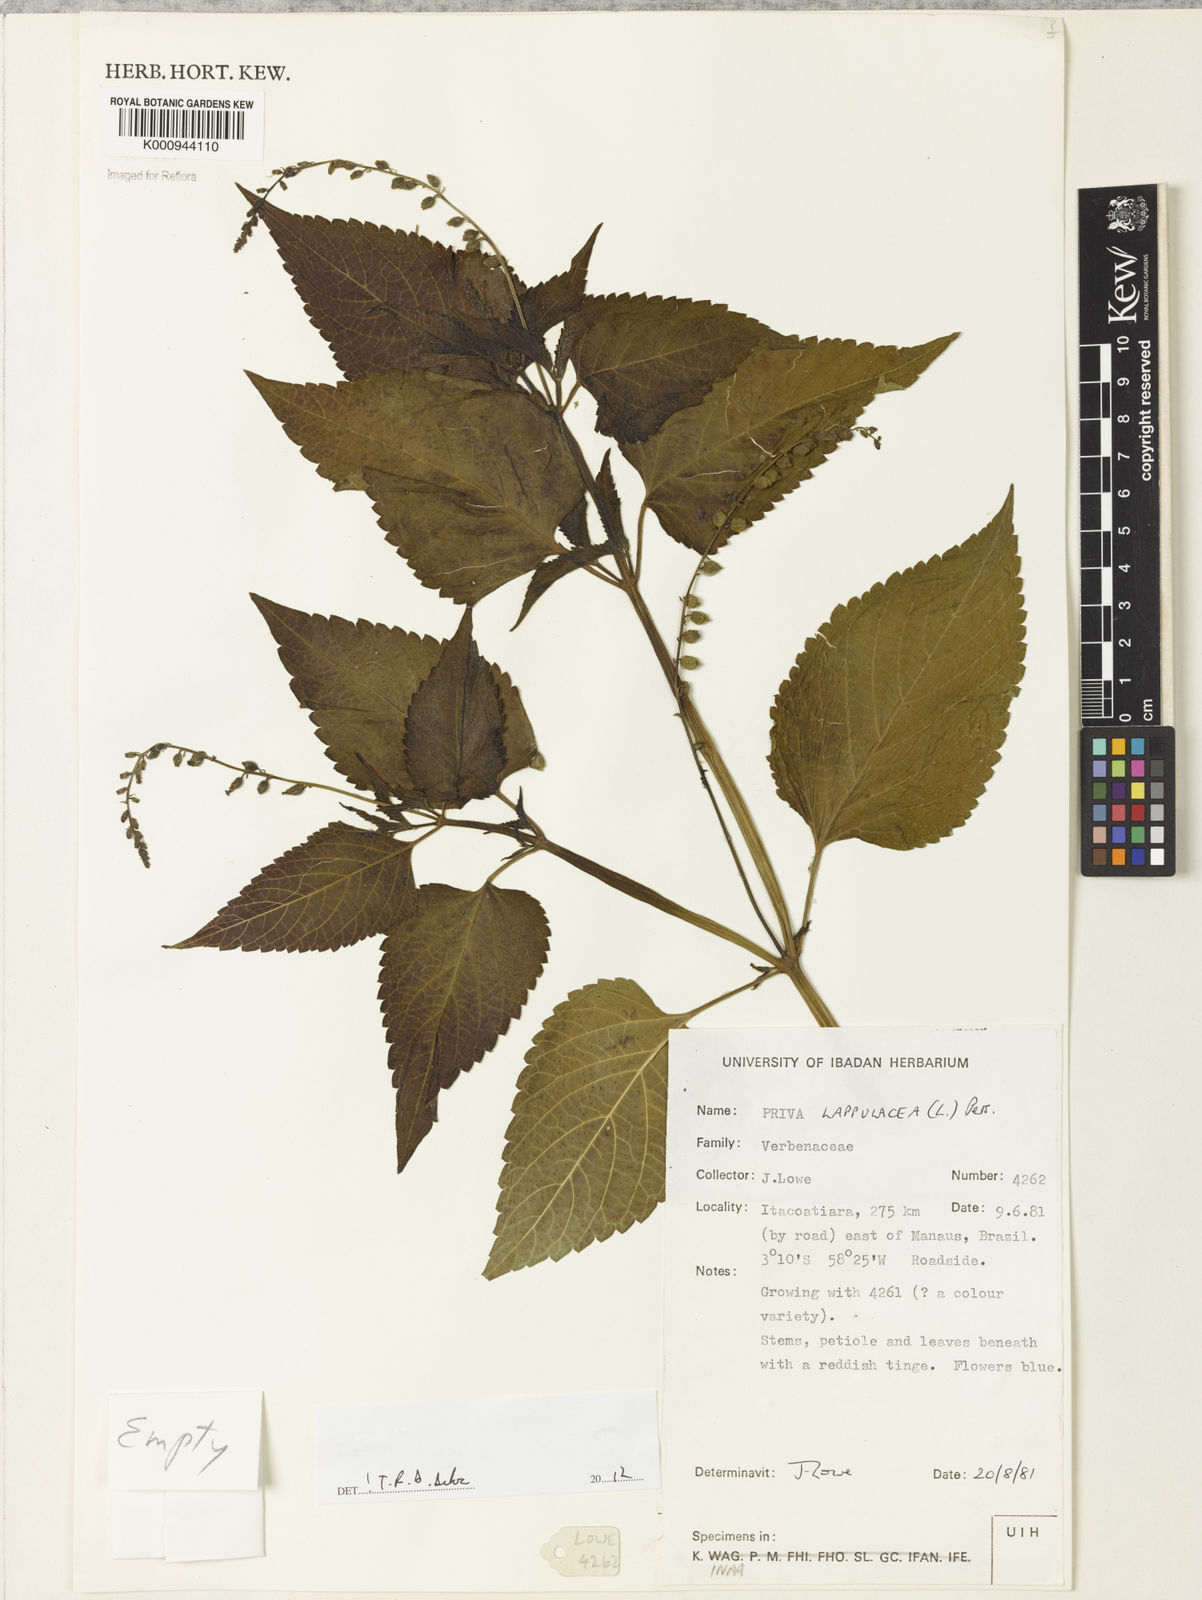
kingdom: Plantae
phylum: Tracheophyta
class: Magnoliopsida
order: Lamiales
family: Verbenaceae
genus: Priva
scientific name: Priva lappulacea
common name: Fasten-'pon-coat
